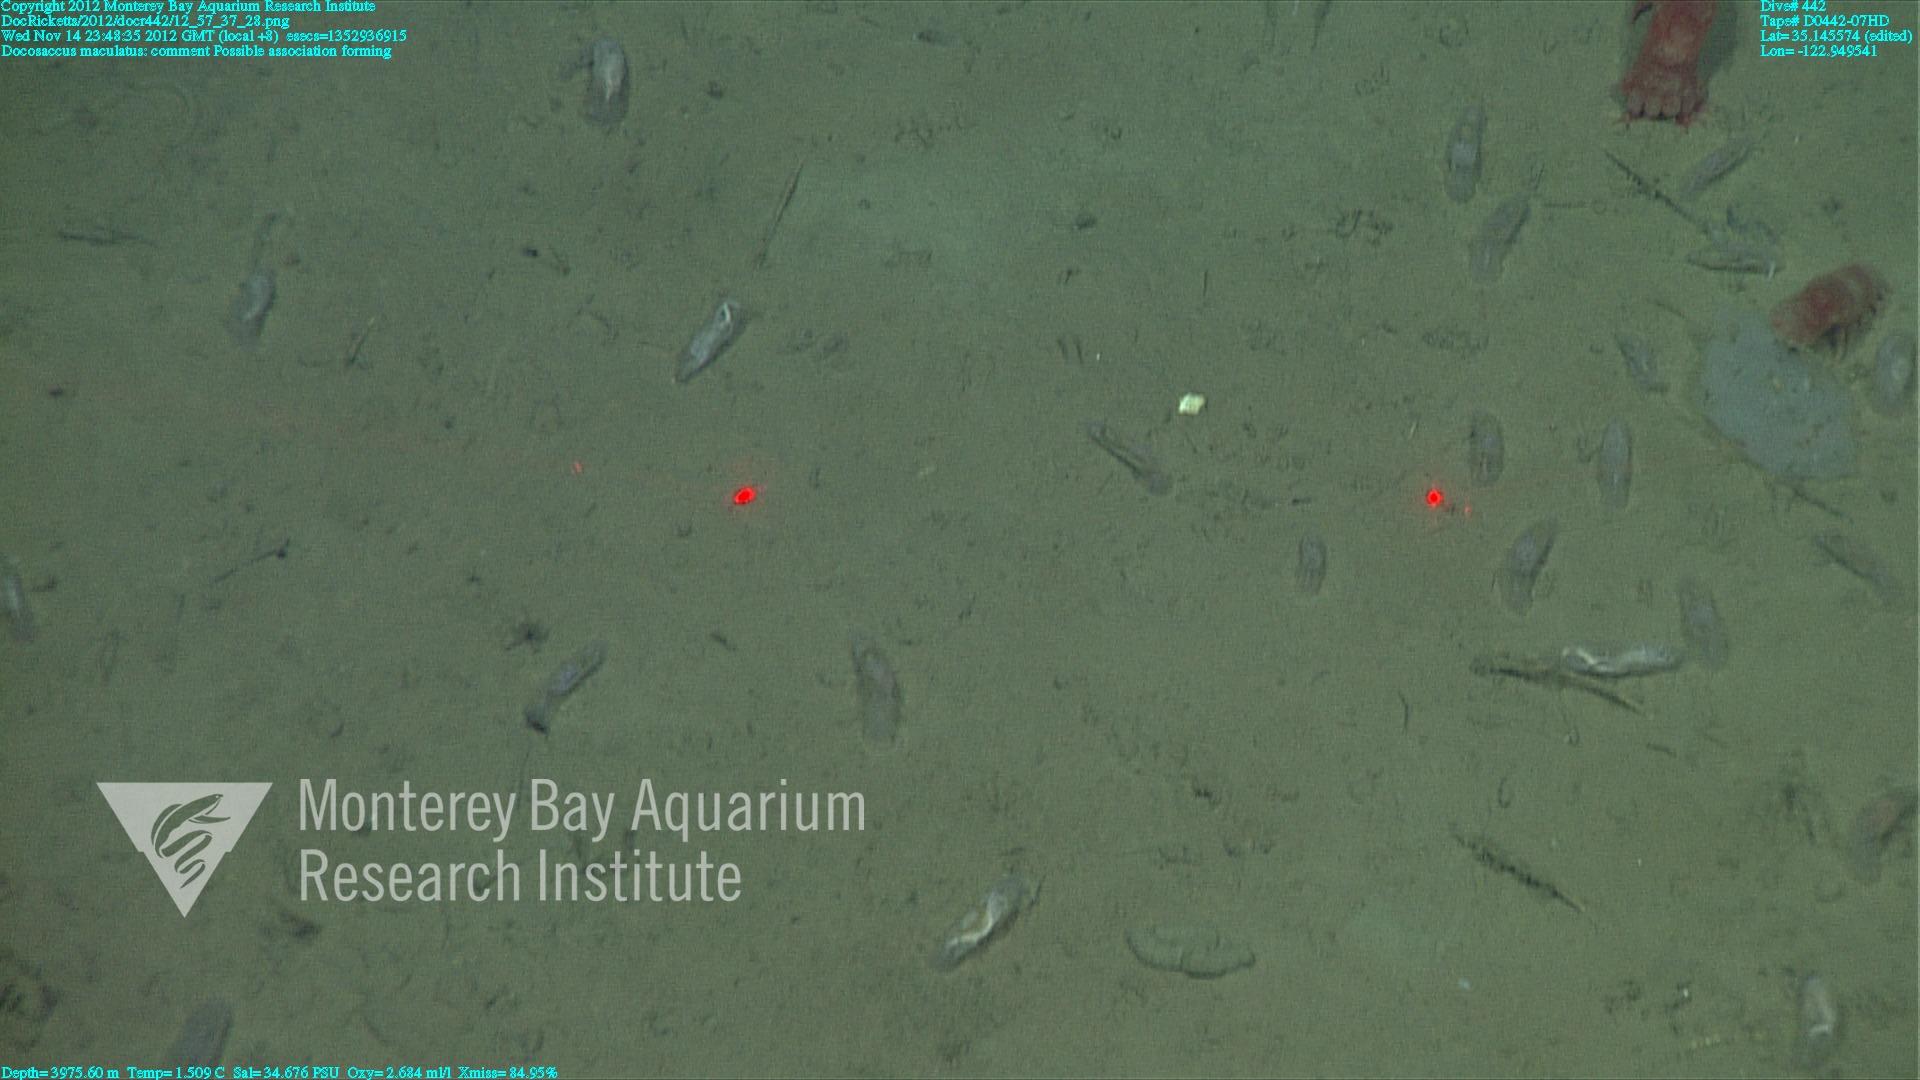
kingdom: Animalia
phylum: Porifera
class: Hexactinellida
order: Lyssacinosida
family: Euplectellidae
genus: Docosaccus
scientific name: Docosaccus maculatus
